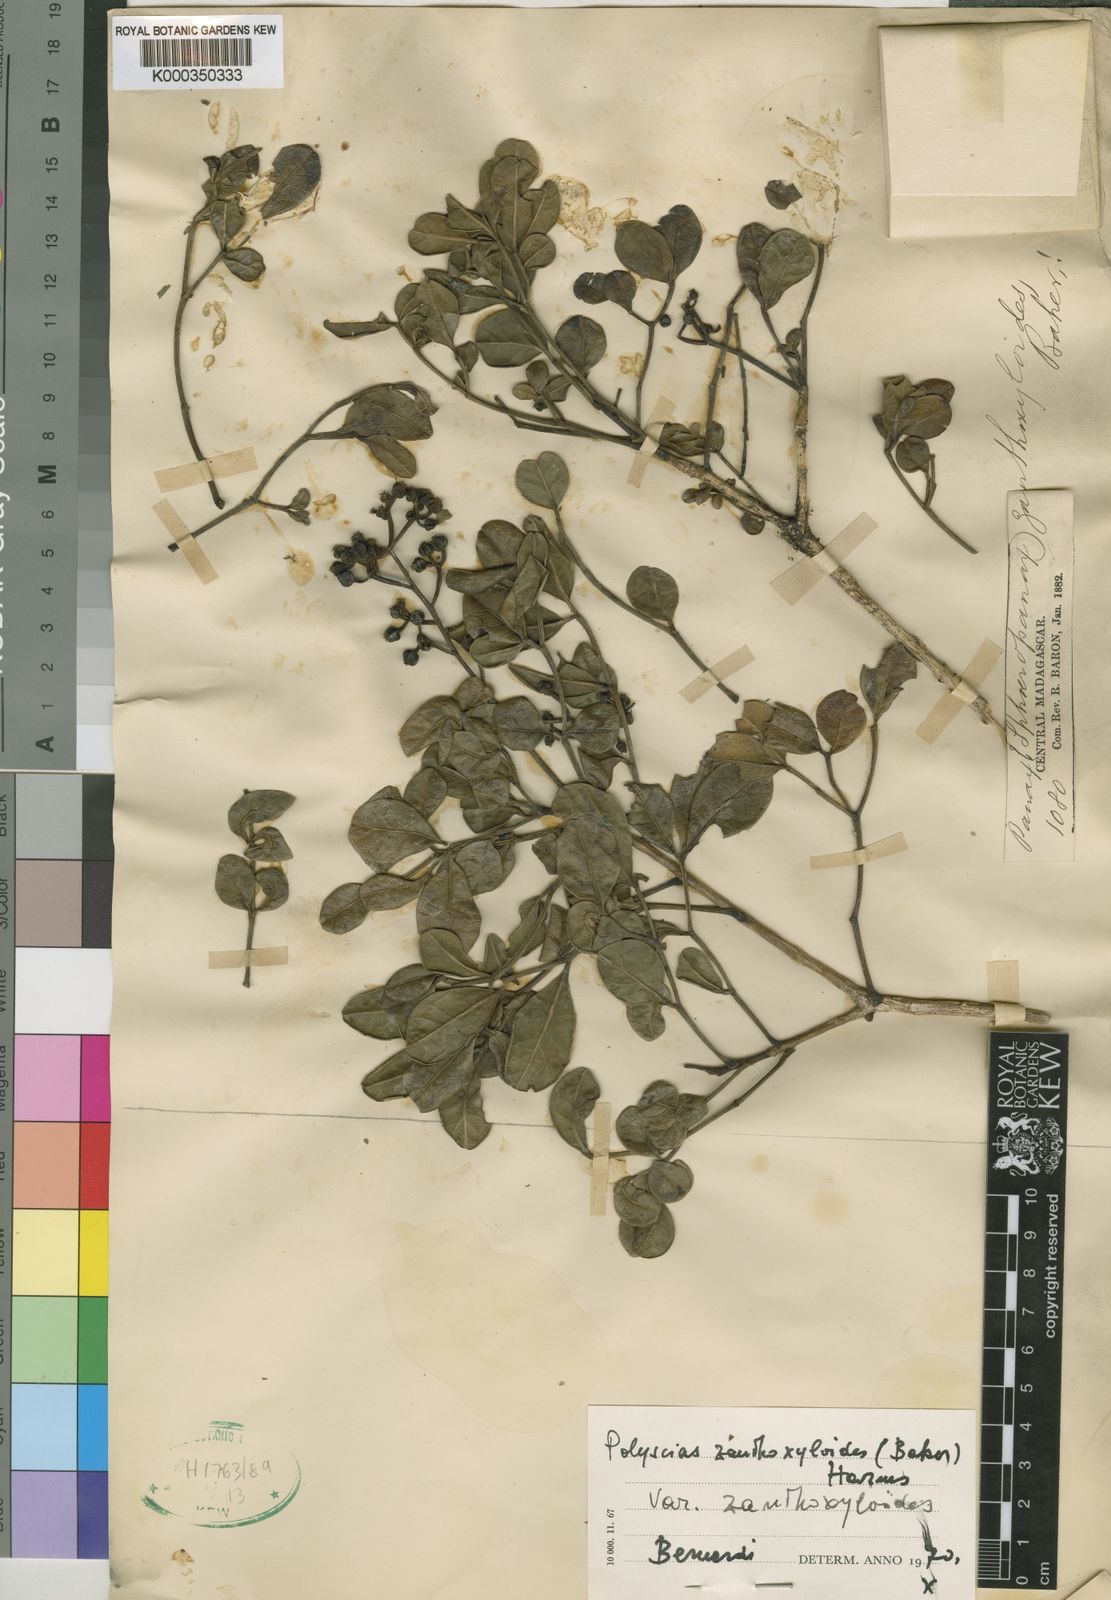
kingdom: Plantae
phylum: Tracheophyta
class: Magnoliopsida
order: Apiales
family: Araliaceae
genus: Polyscias
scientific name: Polyscias zanthoxyloides
